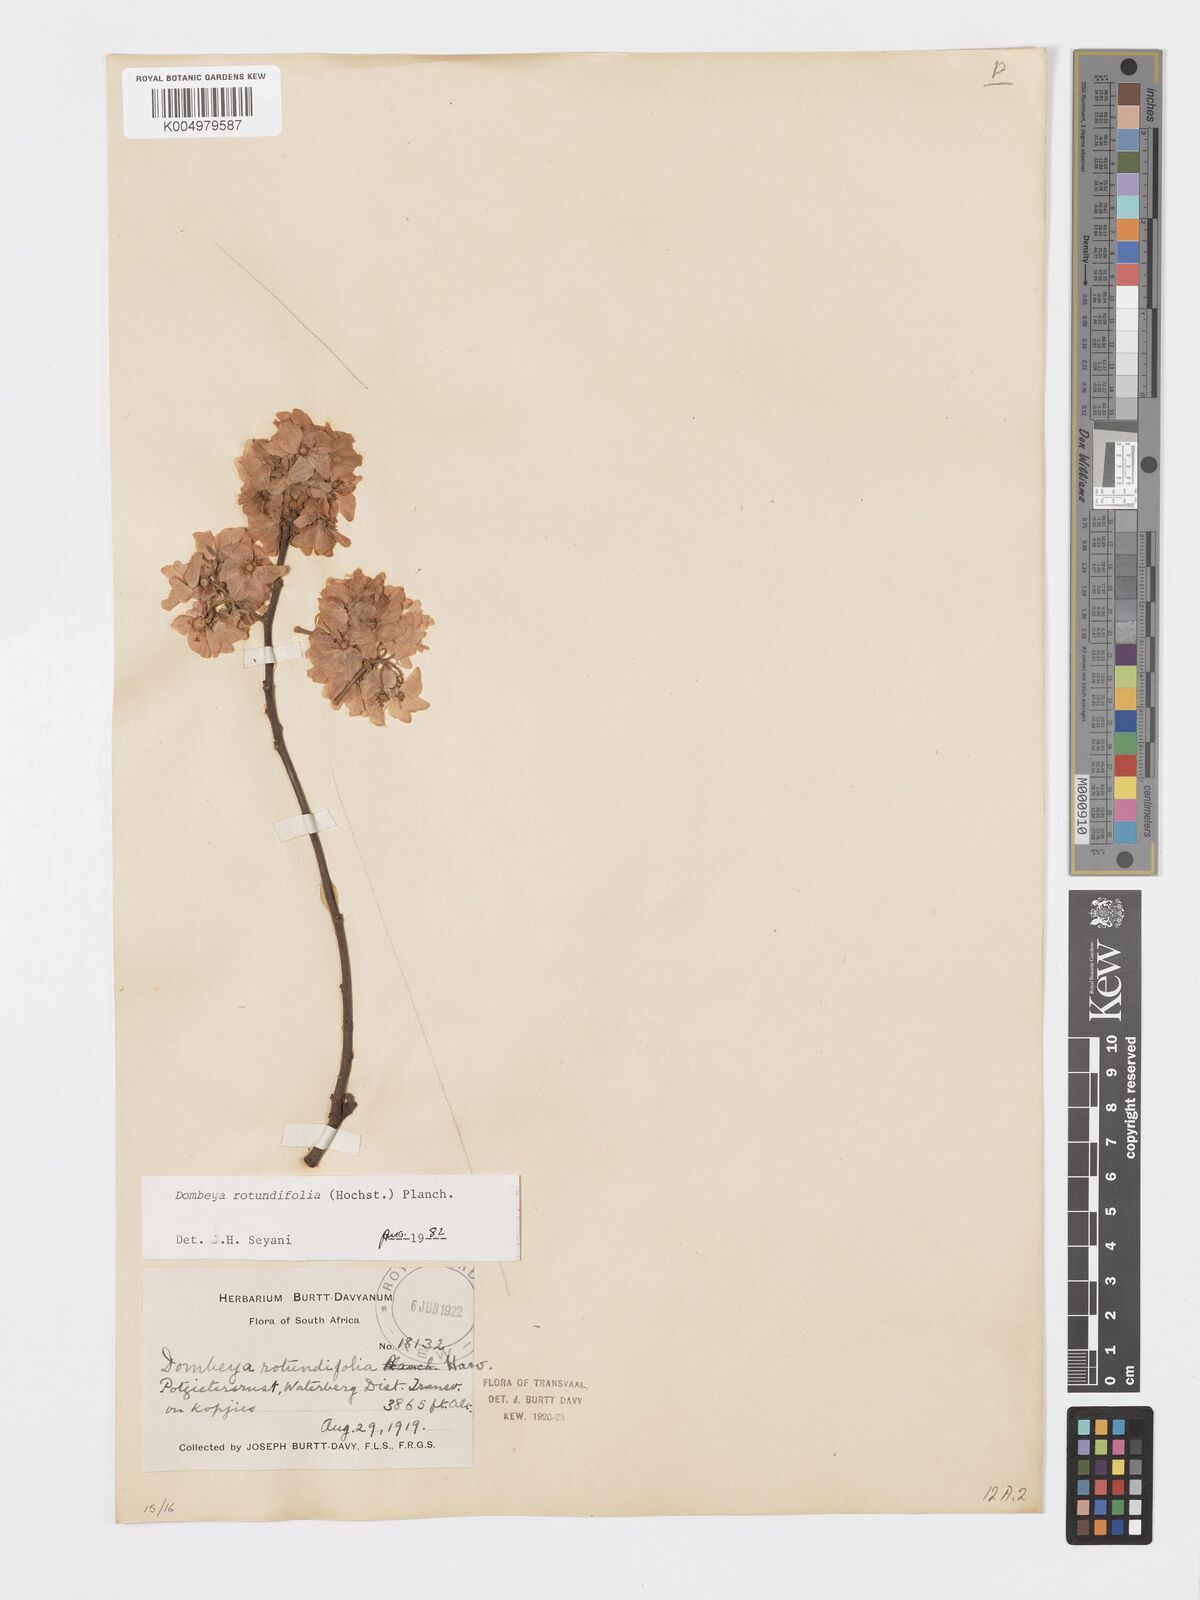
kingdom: Plantae
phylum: Tracheophyta
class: Magnoliopsida
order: Malvales
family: Malvaceae
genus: Dombeya
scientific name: Dombeya rotundifolia
